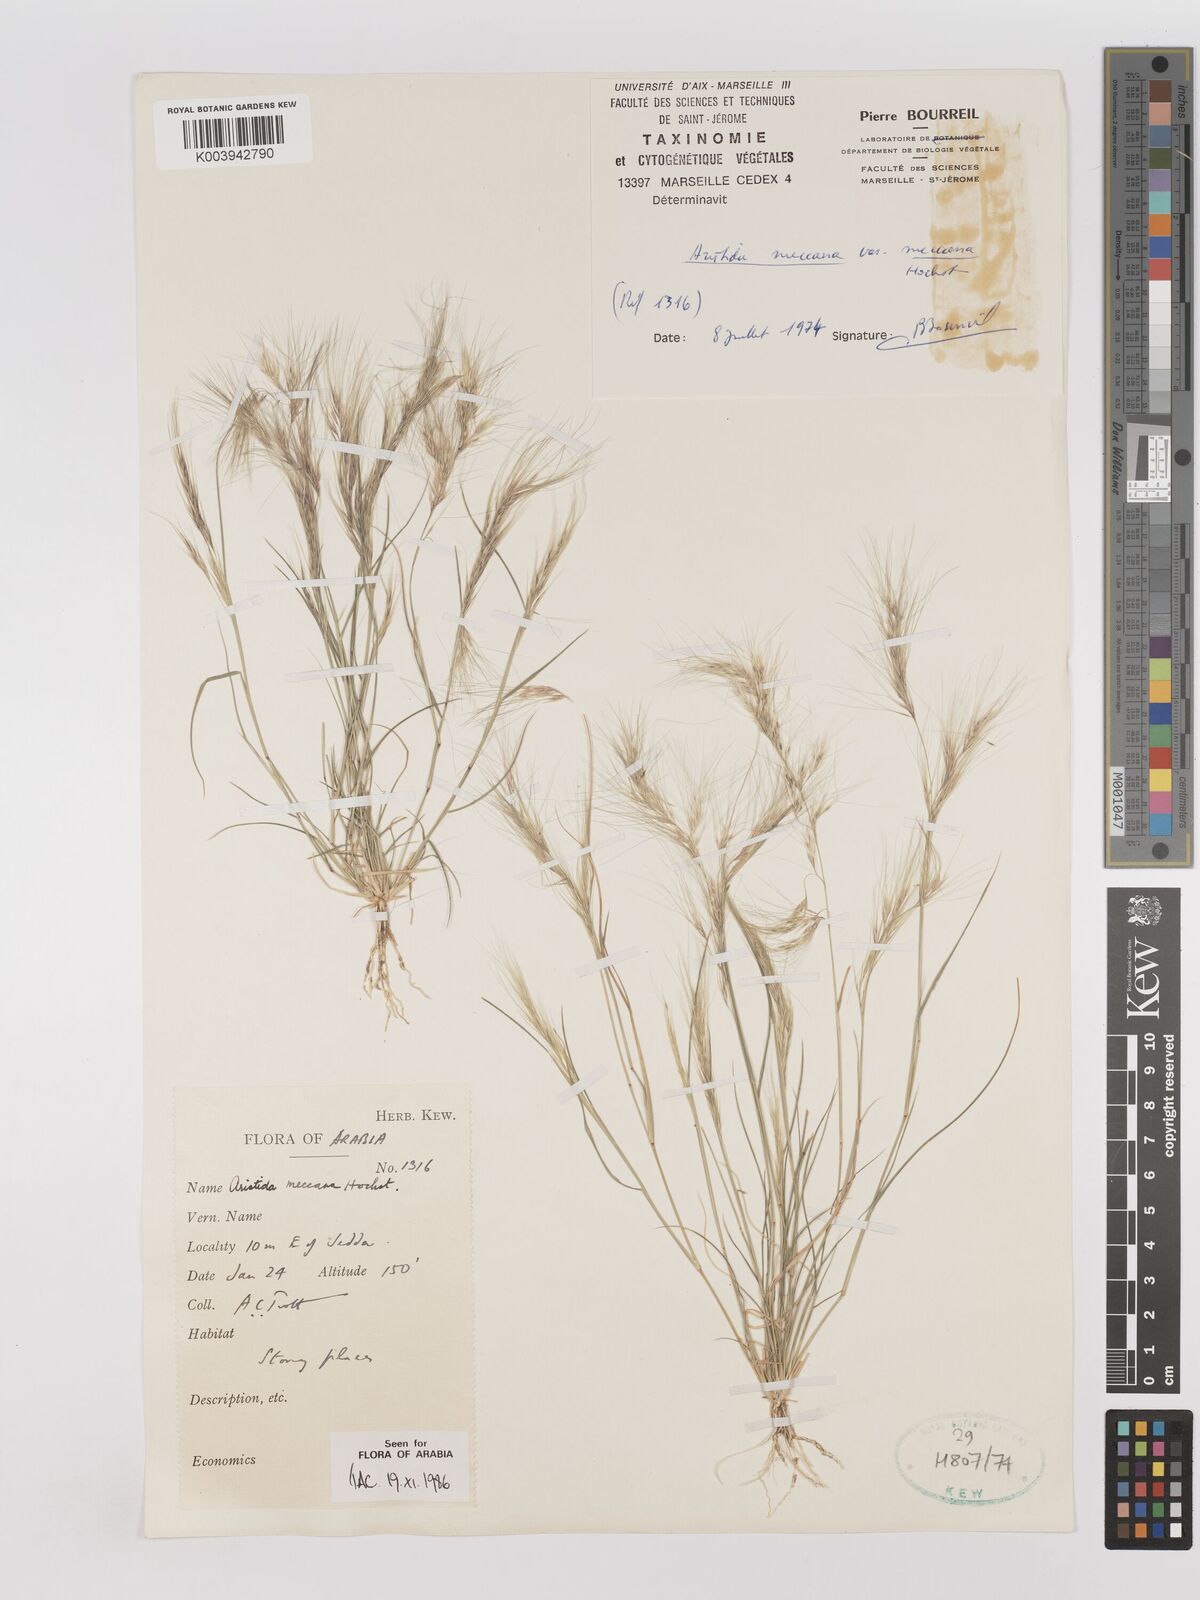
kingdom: Plantae
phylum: Tracheophyta
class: Liliopsida
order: Poales
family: Poaceae
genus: Aristida
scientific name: Aristida mutabilis
